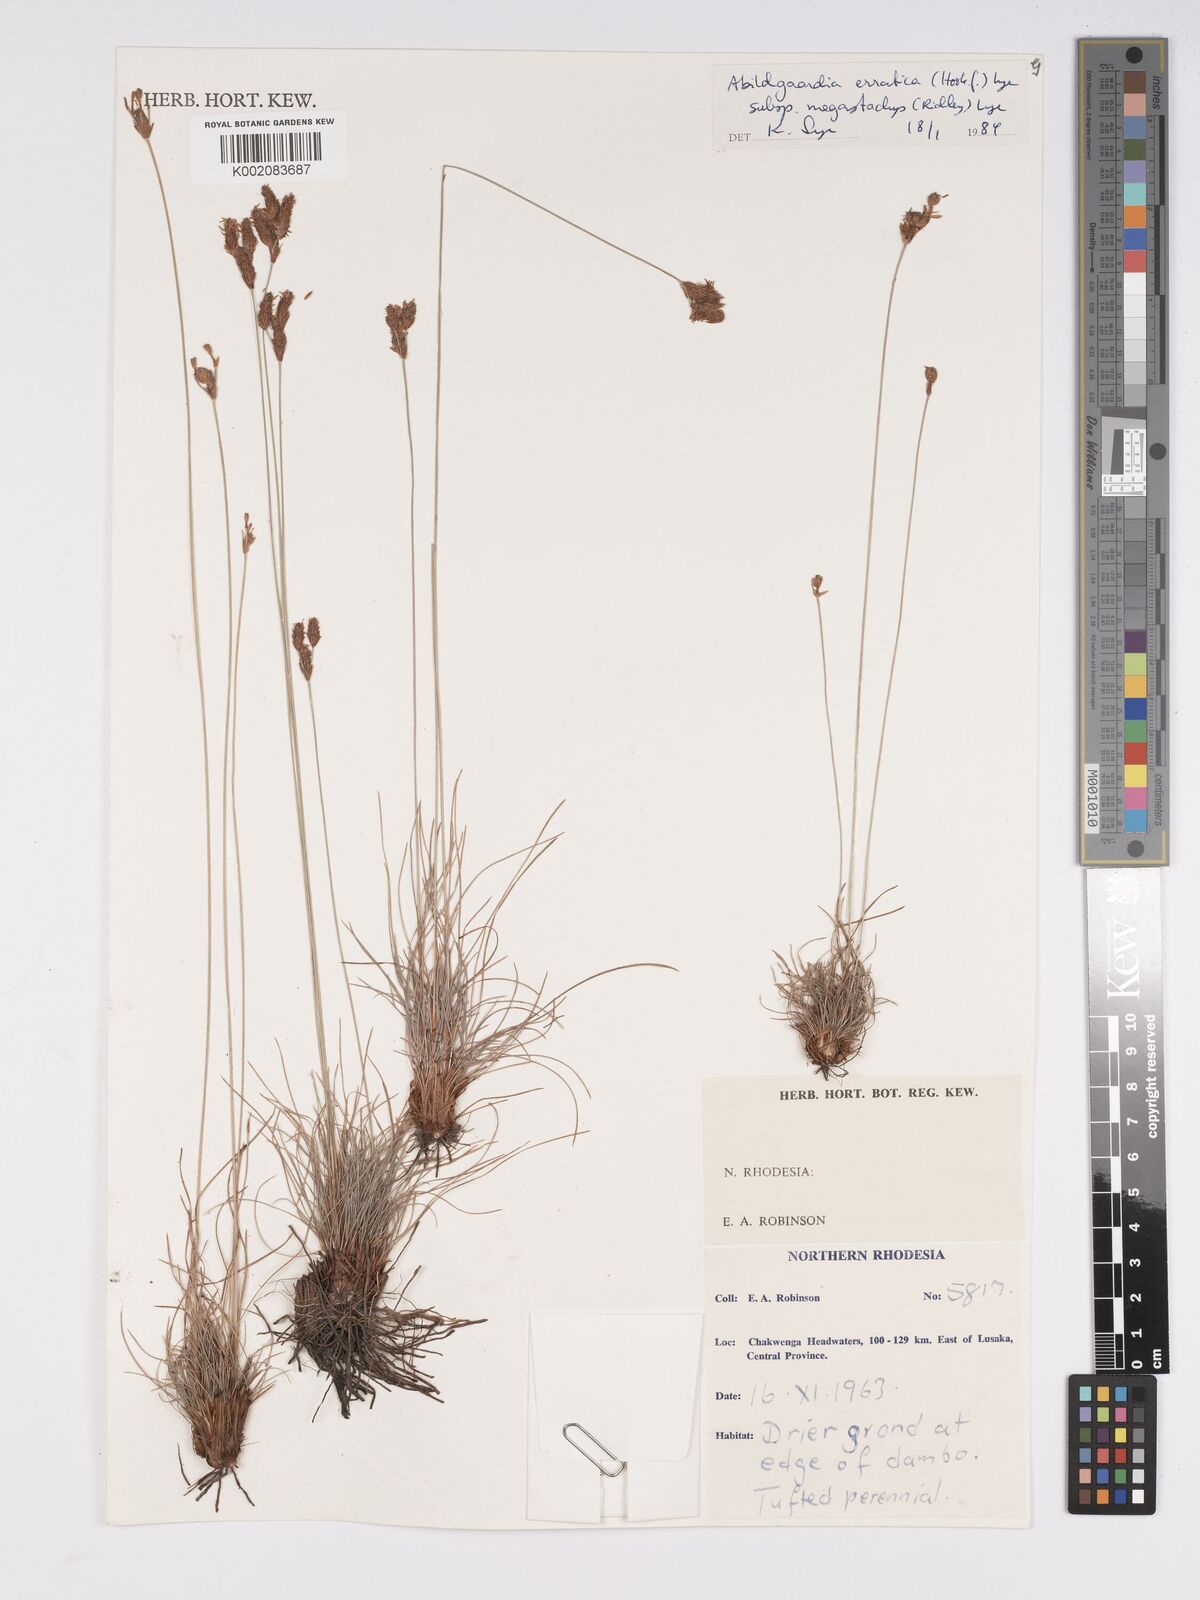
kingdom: Plantae
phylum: Tracheophyta
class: Liliopsida
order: Poales
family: Cyperaceae
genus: Bulbostylis
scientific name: Bulbostylis schoenoides
